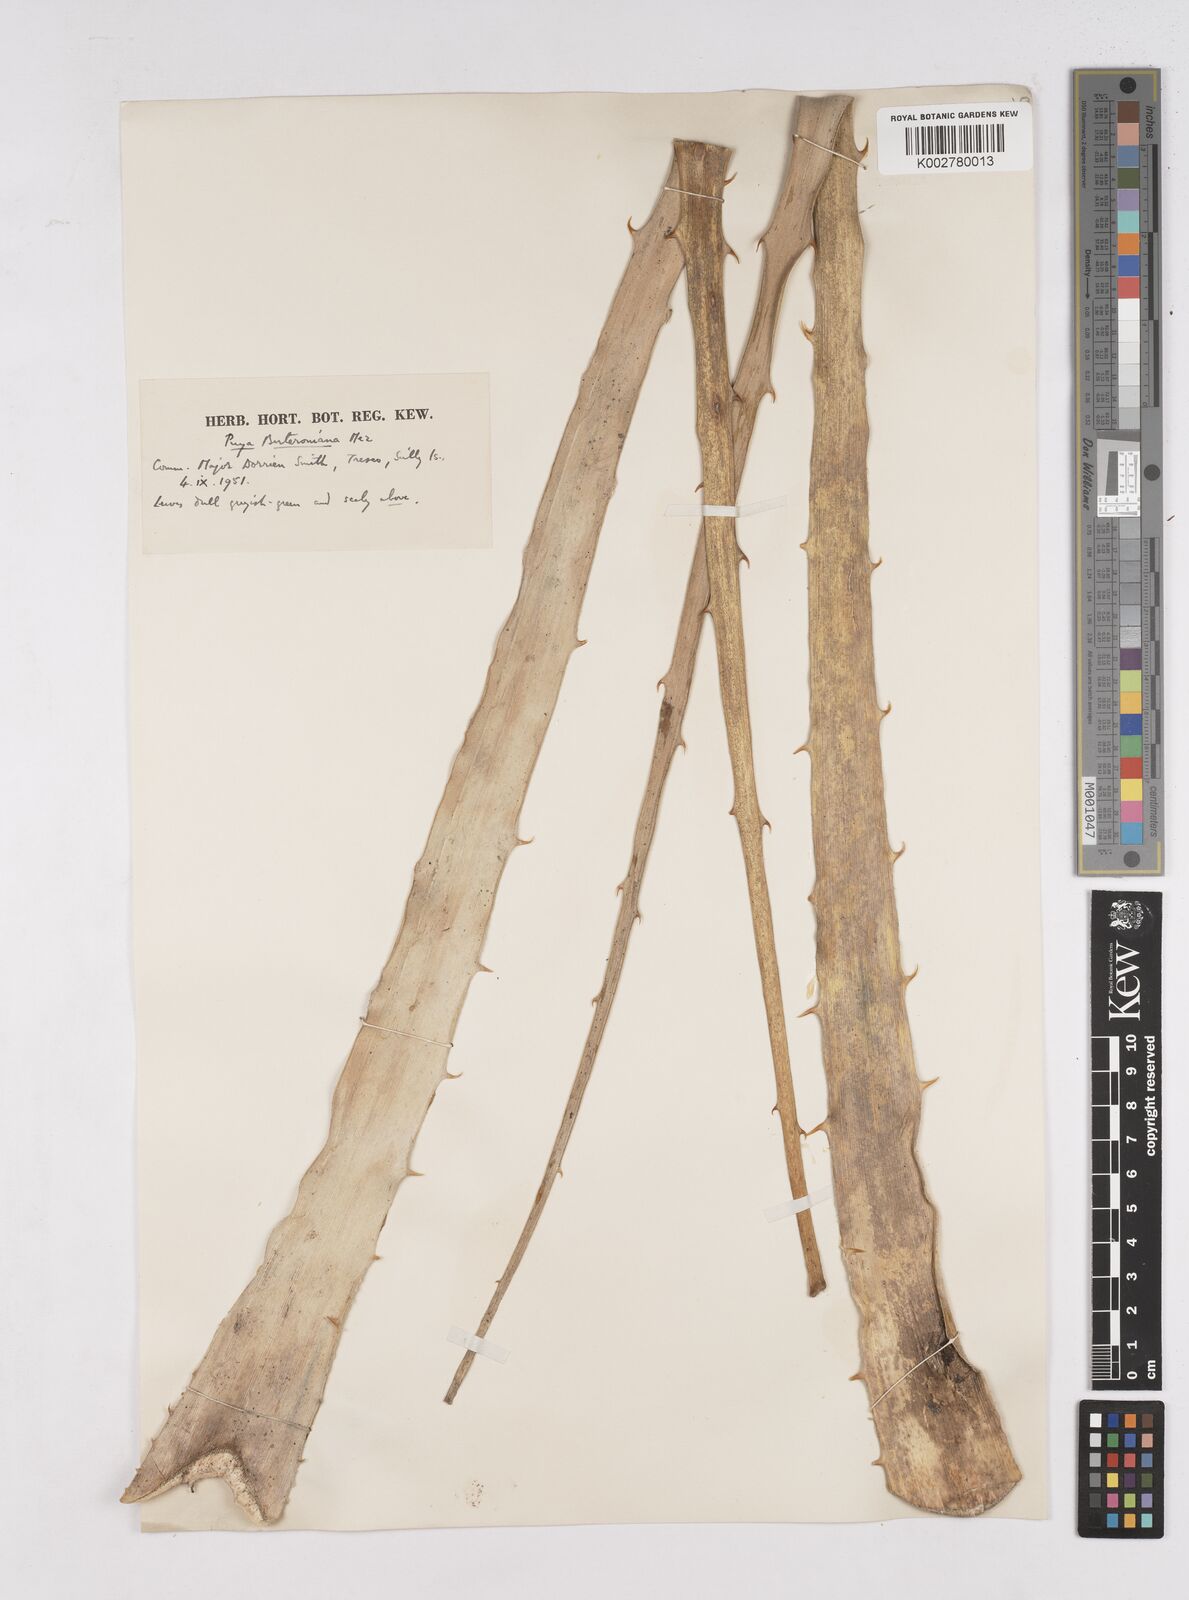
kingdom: Plantae
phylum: Tracheophyta
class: Liliopsida
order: Poales
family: Bromeliaceae
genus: Puya
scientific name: Puya berteroniana
